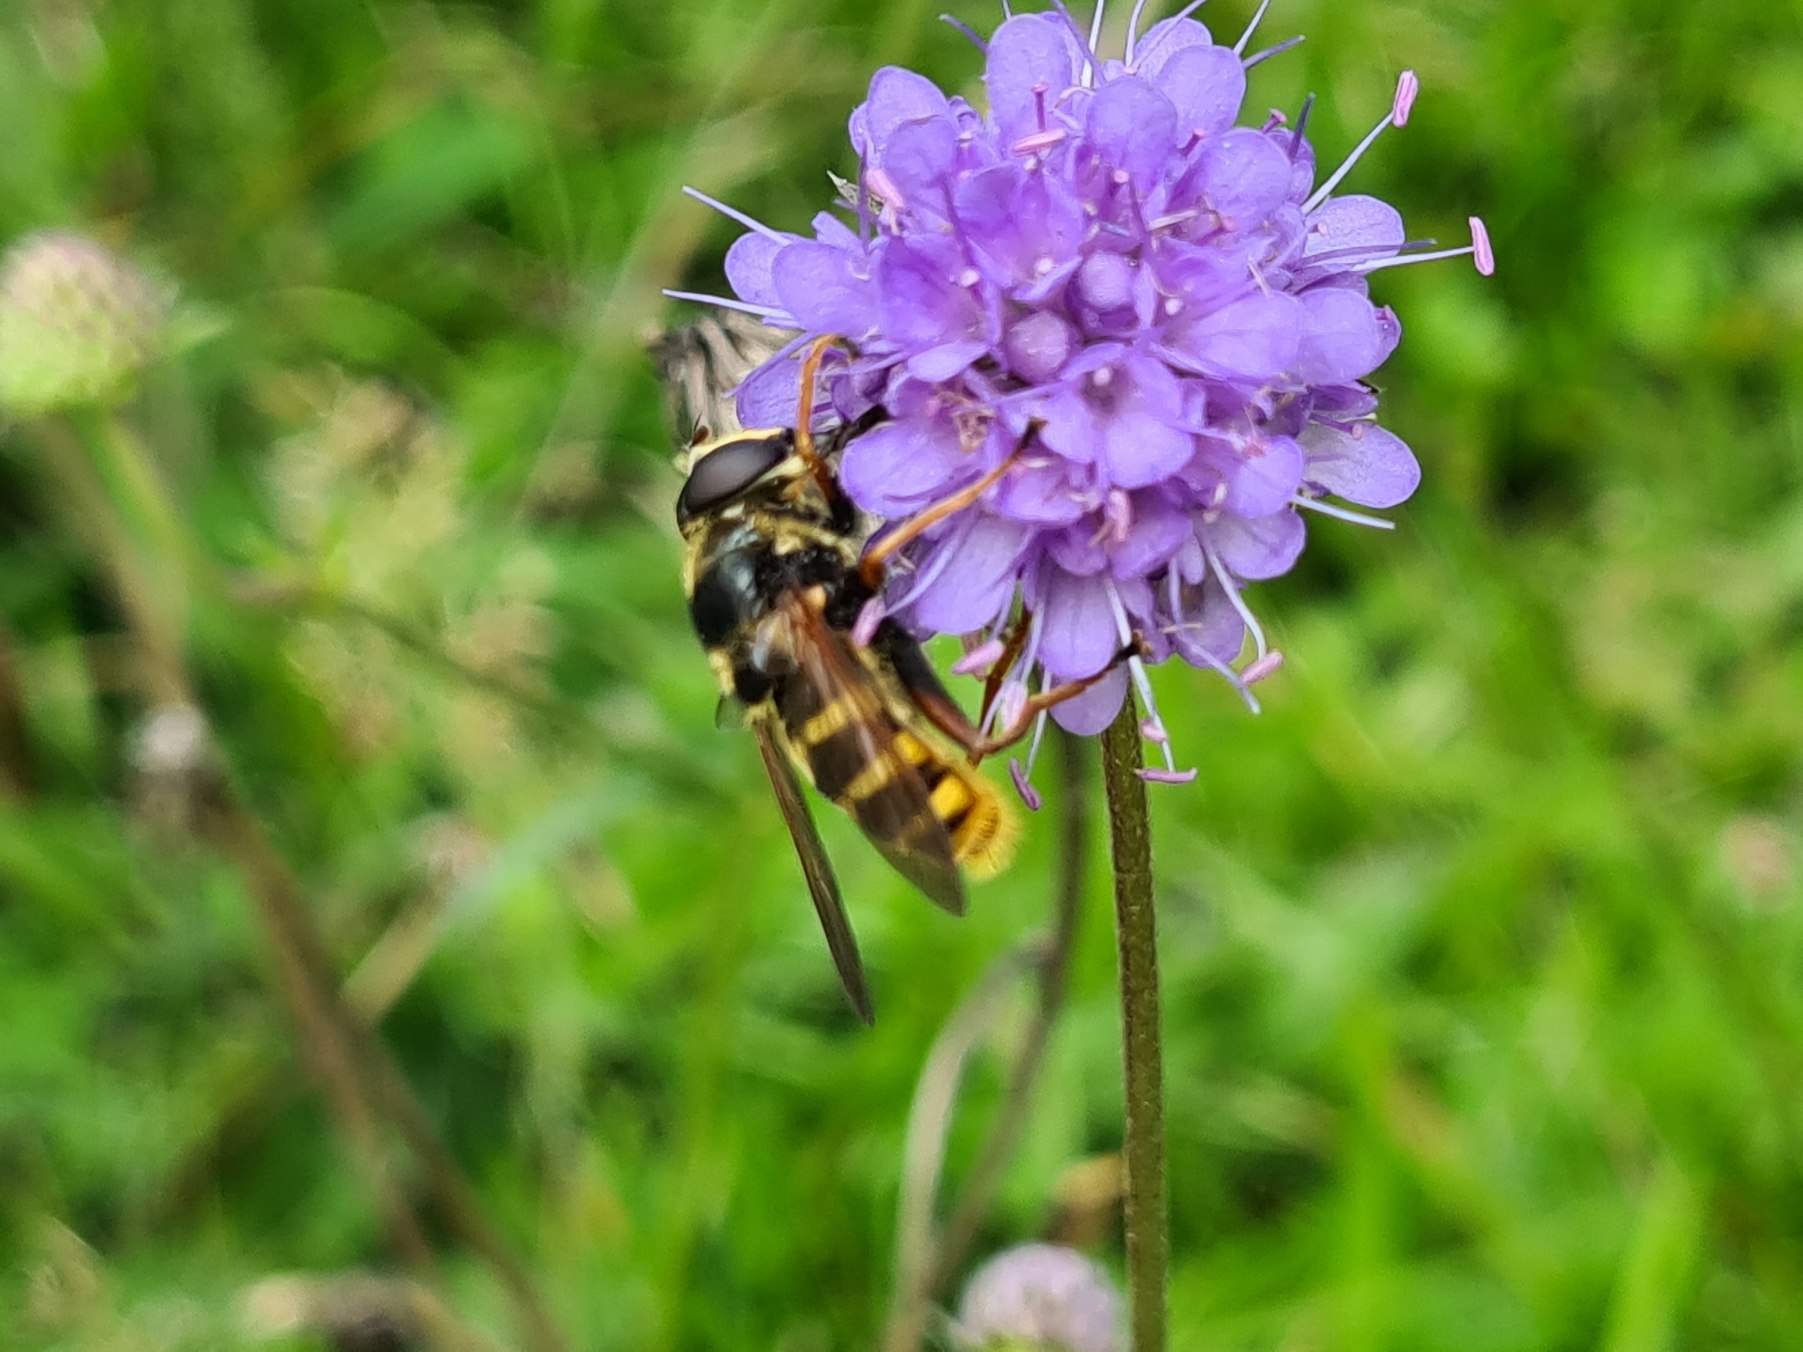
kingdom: Animalia
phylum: Arthropoda
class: Insecta
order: Diptera
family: Syrphidae
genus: Sericomyia
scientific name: Sericomyia silentis
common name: Tørve-silkesvirreflue
